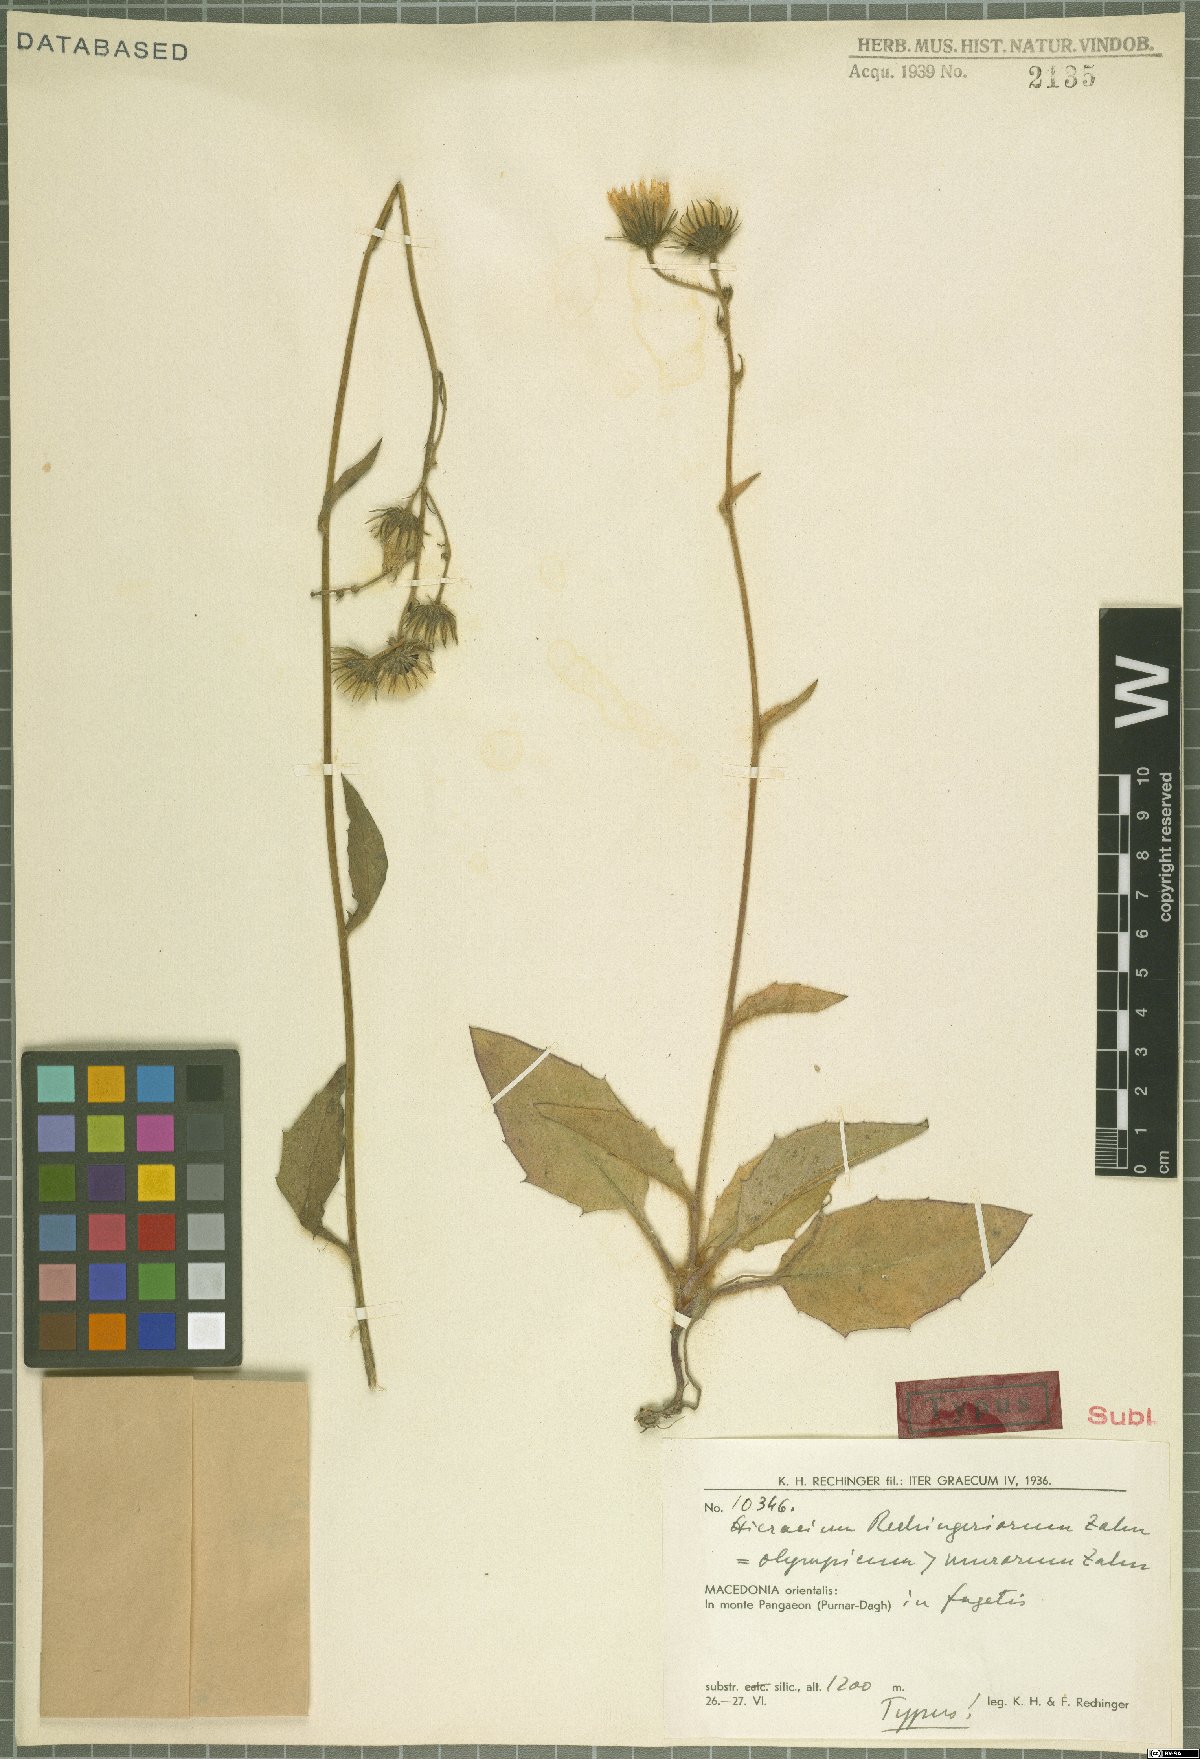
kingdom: Plantae
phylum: Tracheophyta
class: Magnoliopsida
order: Asterales
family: Asteraceae
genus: Hieracium
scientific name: Hieracium rechingerorum
